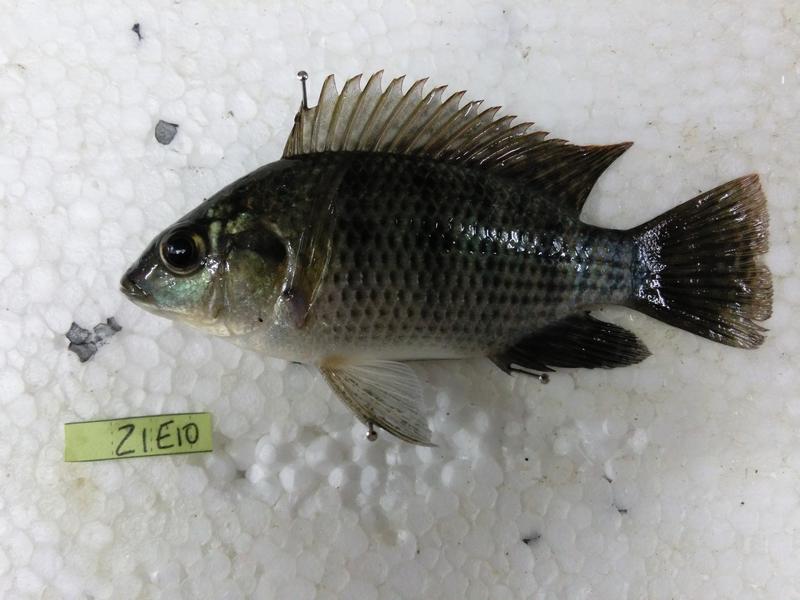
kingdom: Animalia
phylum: Chordata
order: Perciformes
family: Cichlidae
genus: Oreochromis
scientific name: Oreochromis urolepis
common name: Wami tilapia
